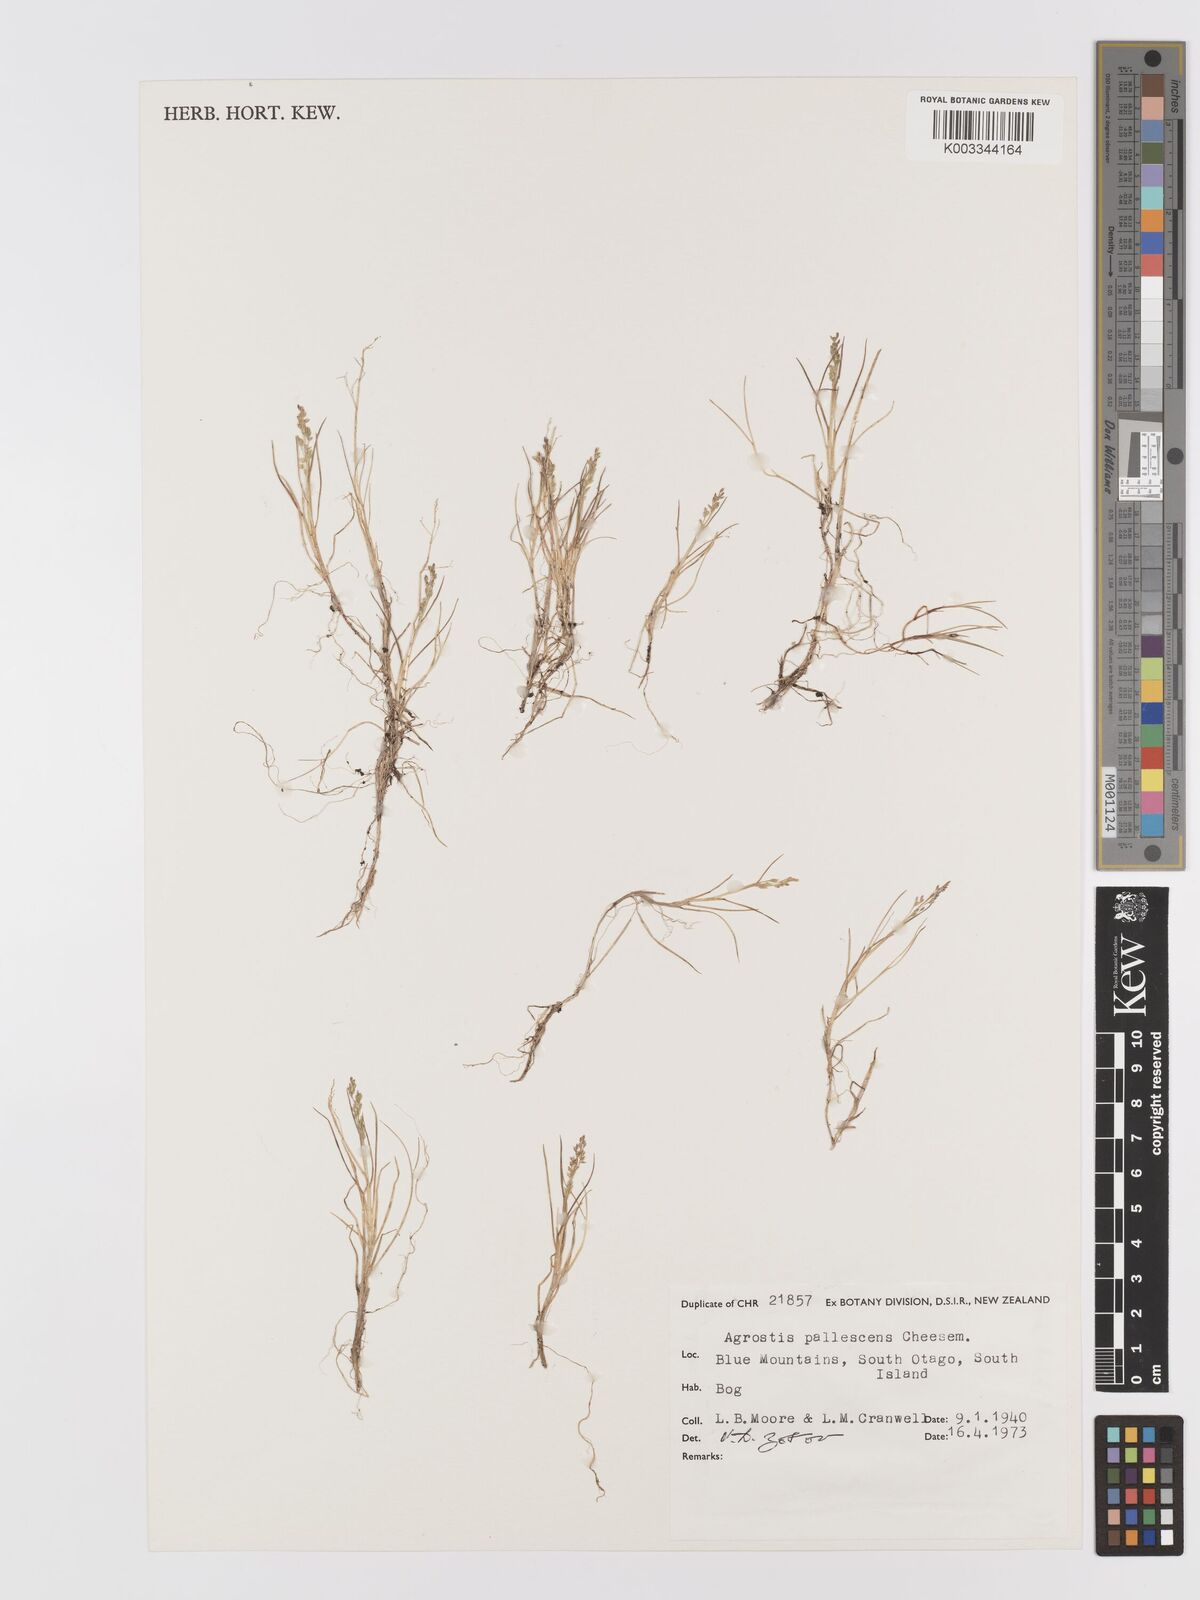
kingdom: Plantae
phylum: Tracheophyta
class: Liliopsida
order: Poales
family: Poaceae
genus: Agrostis
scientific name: Agrostis pallescens
